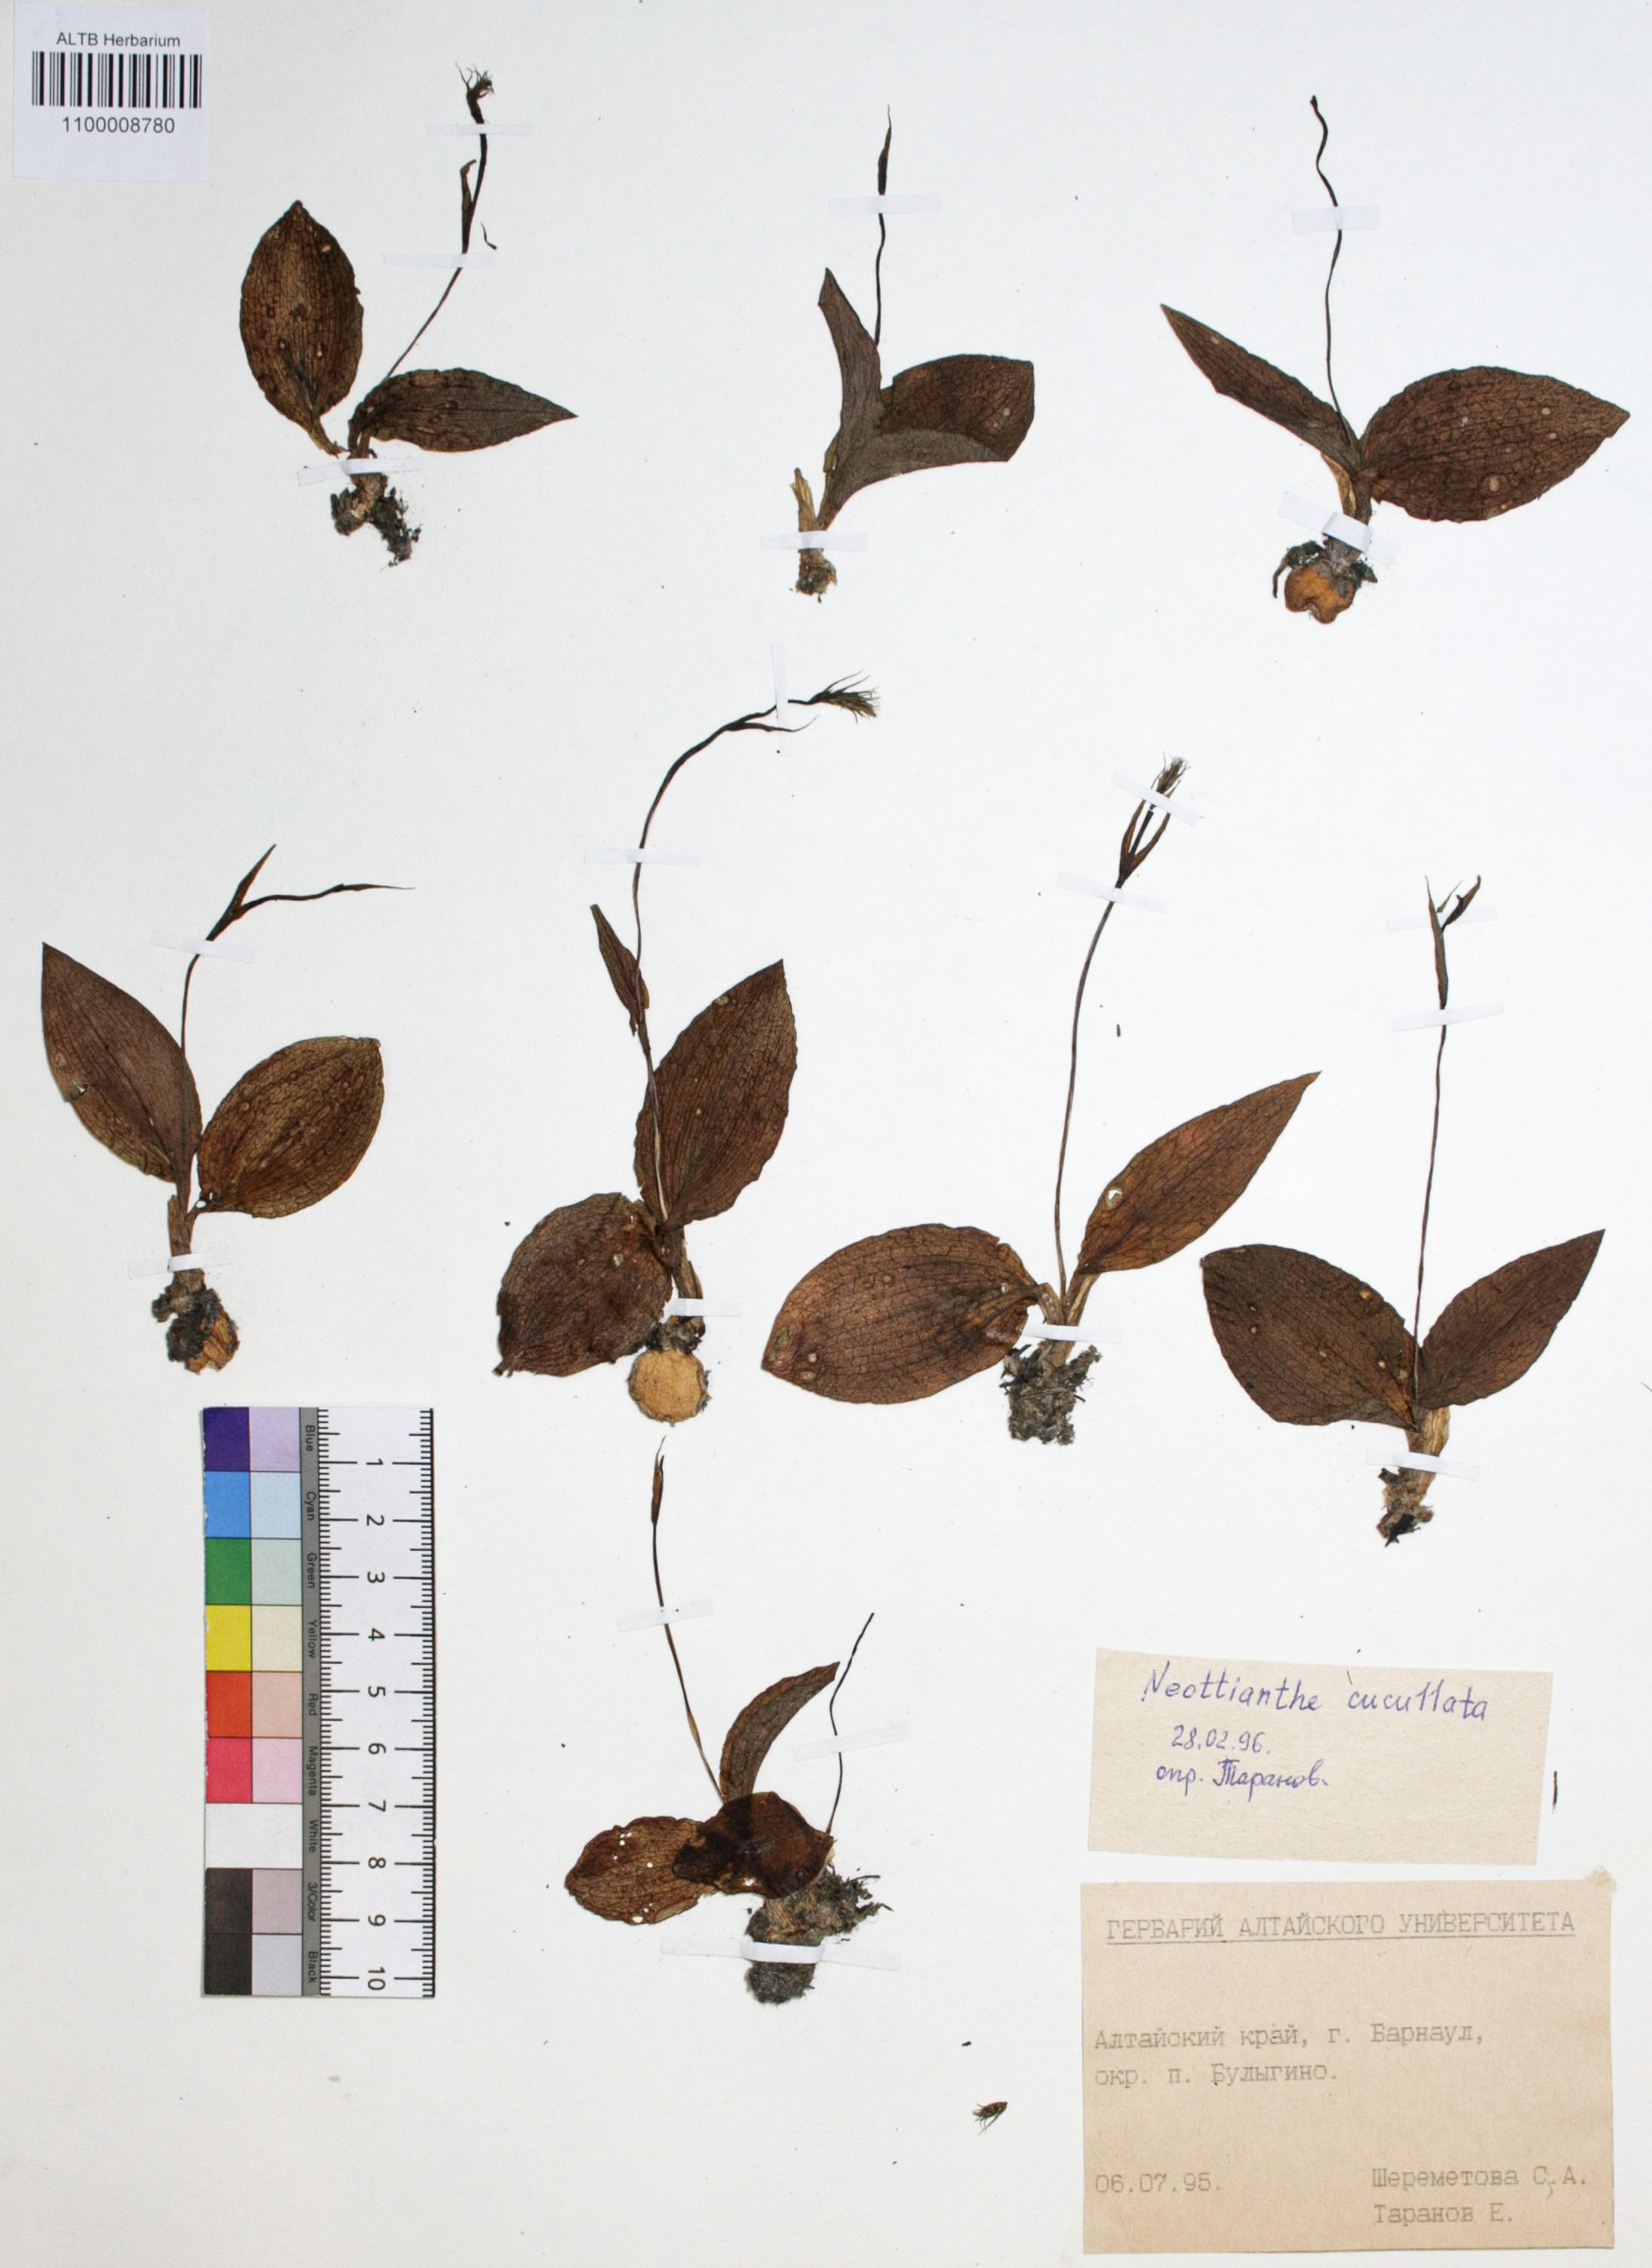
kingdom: Plantae
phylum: Tracheophyta
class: Liliopsida
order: Asparagales
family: Orchidaceae
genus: Hemipilia
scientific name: Hemipilia cucullata
